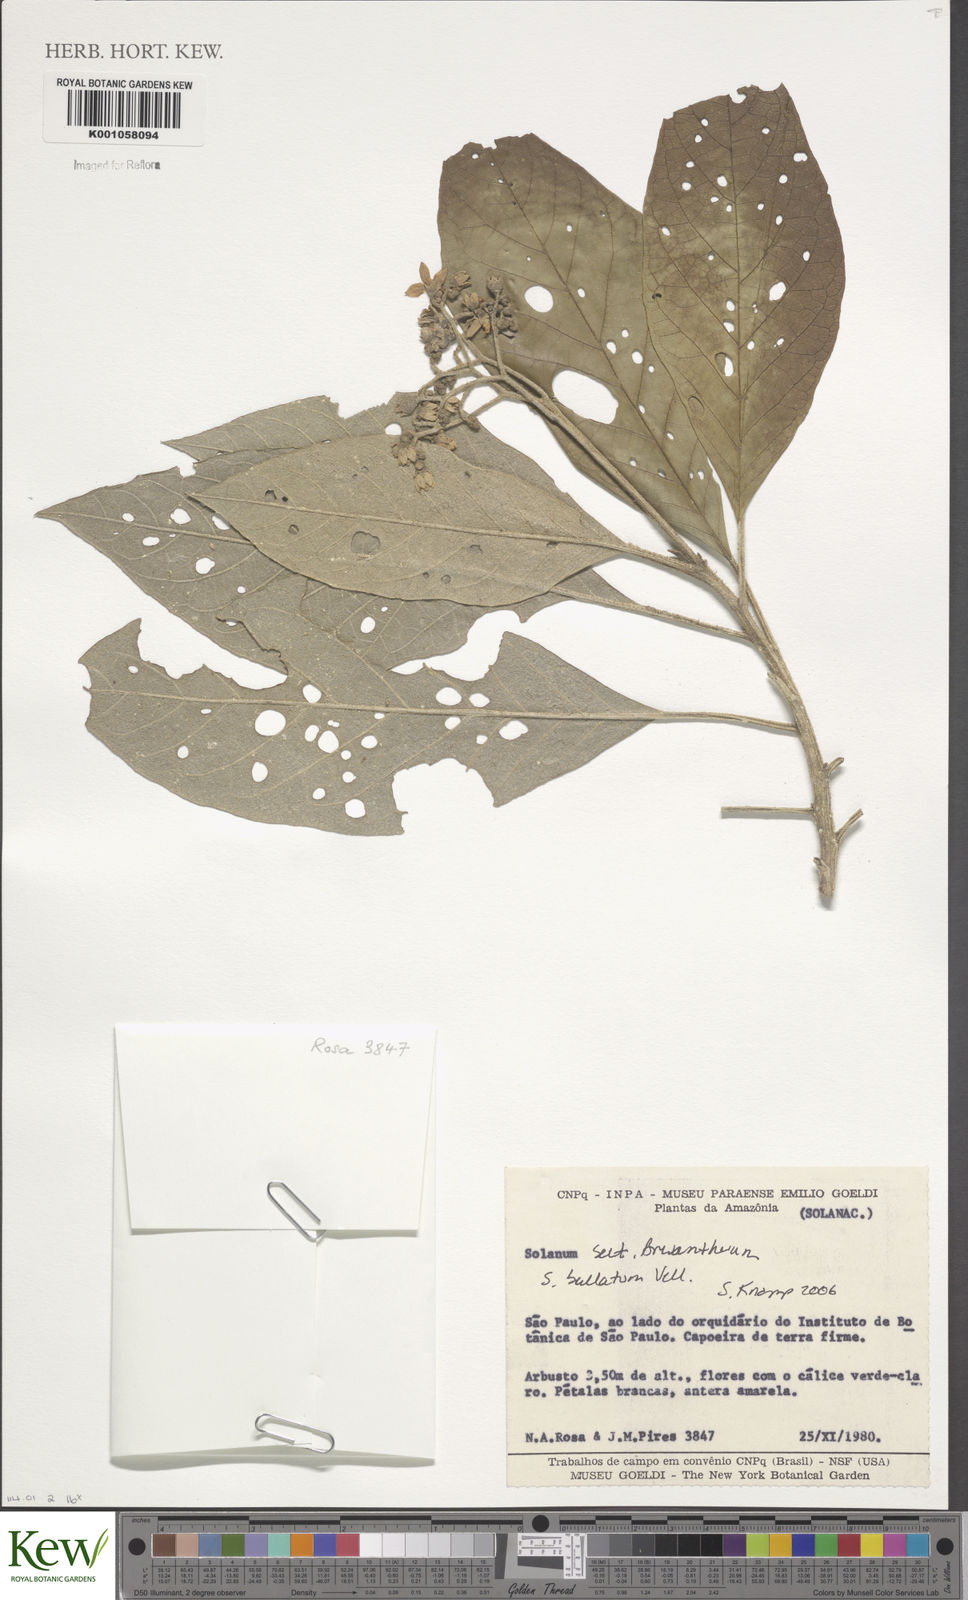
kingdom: Plantae
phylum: Tracheophyta
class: Magnoliopsida
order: Solanales
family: Solanaceae
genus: Solanum
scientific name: Solanum bullatum
